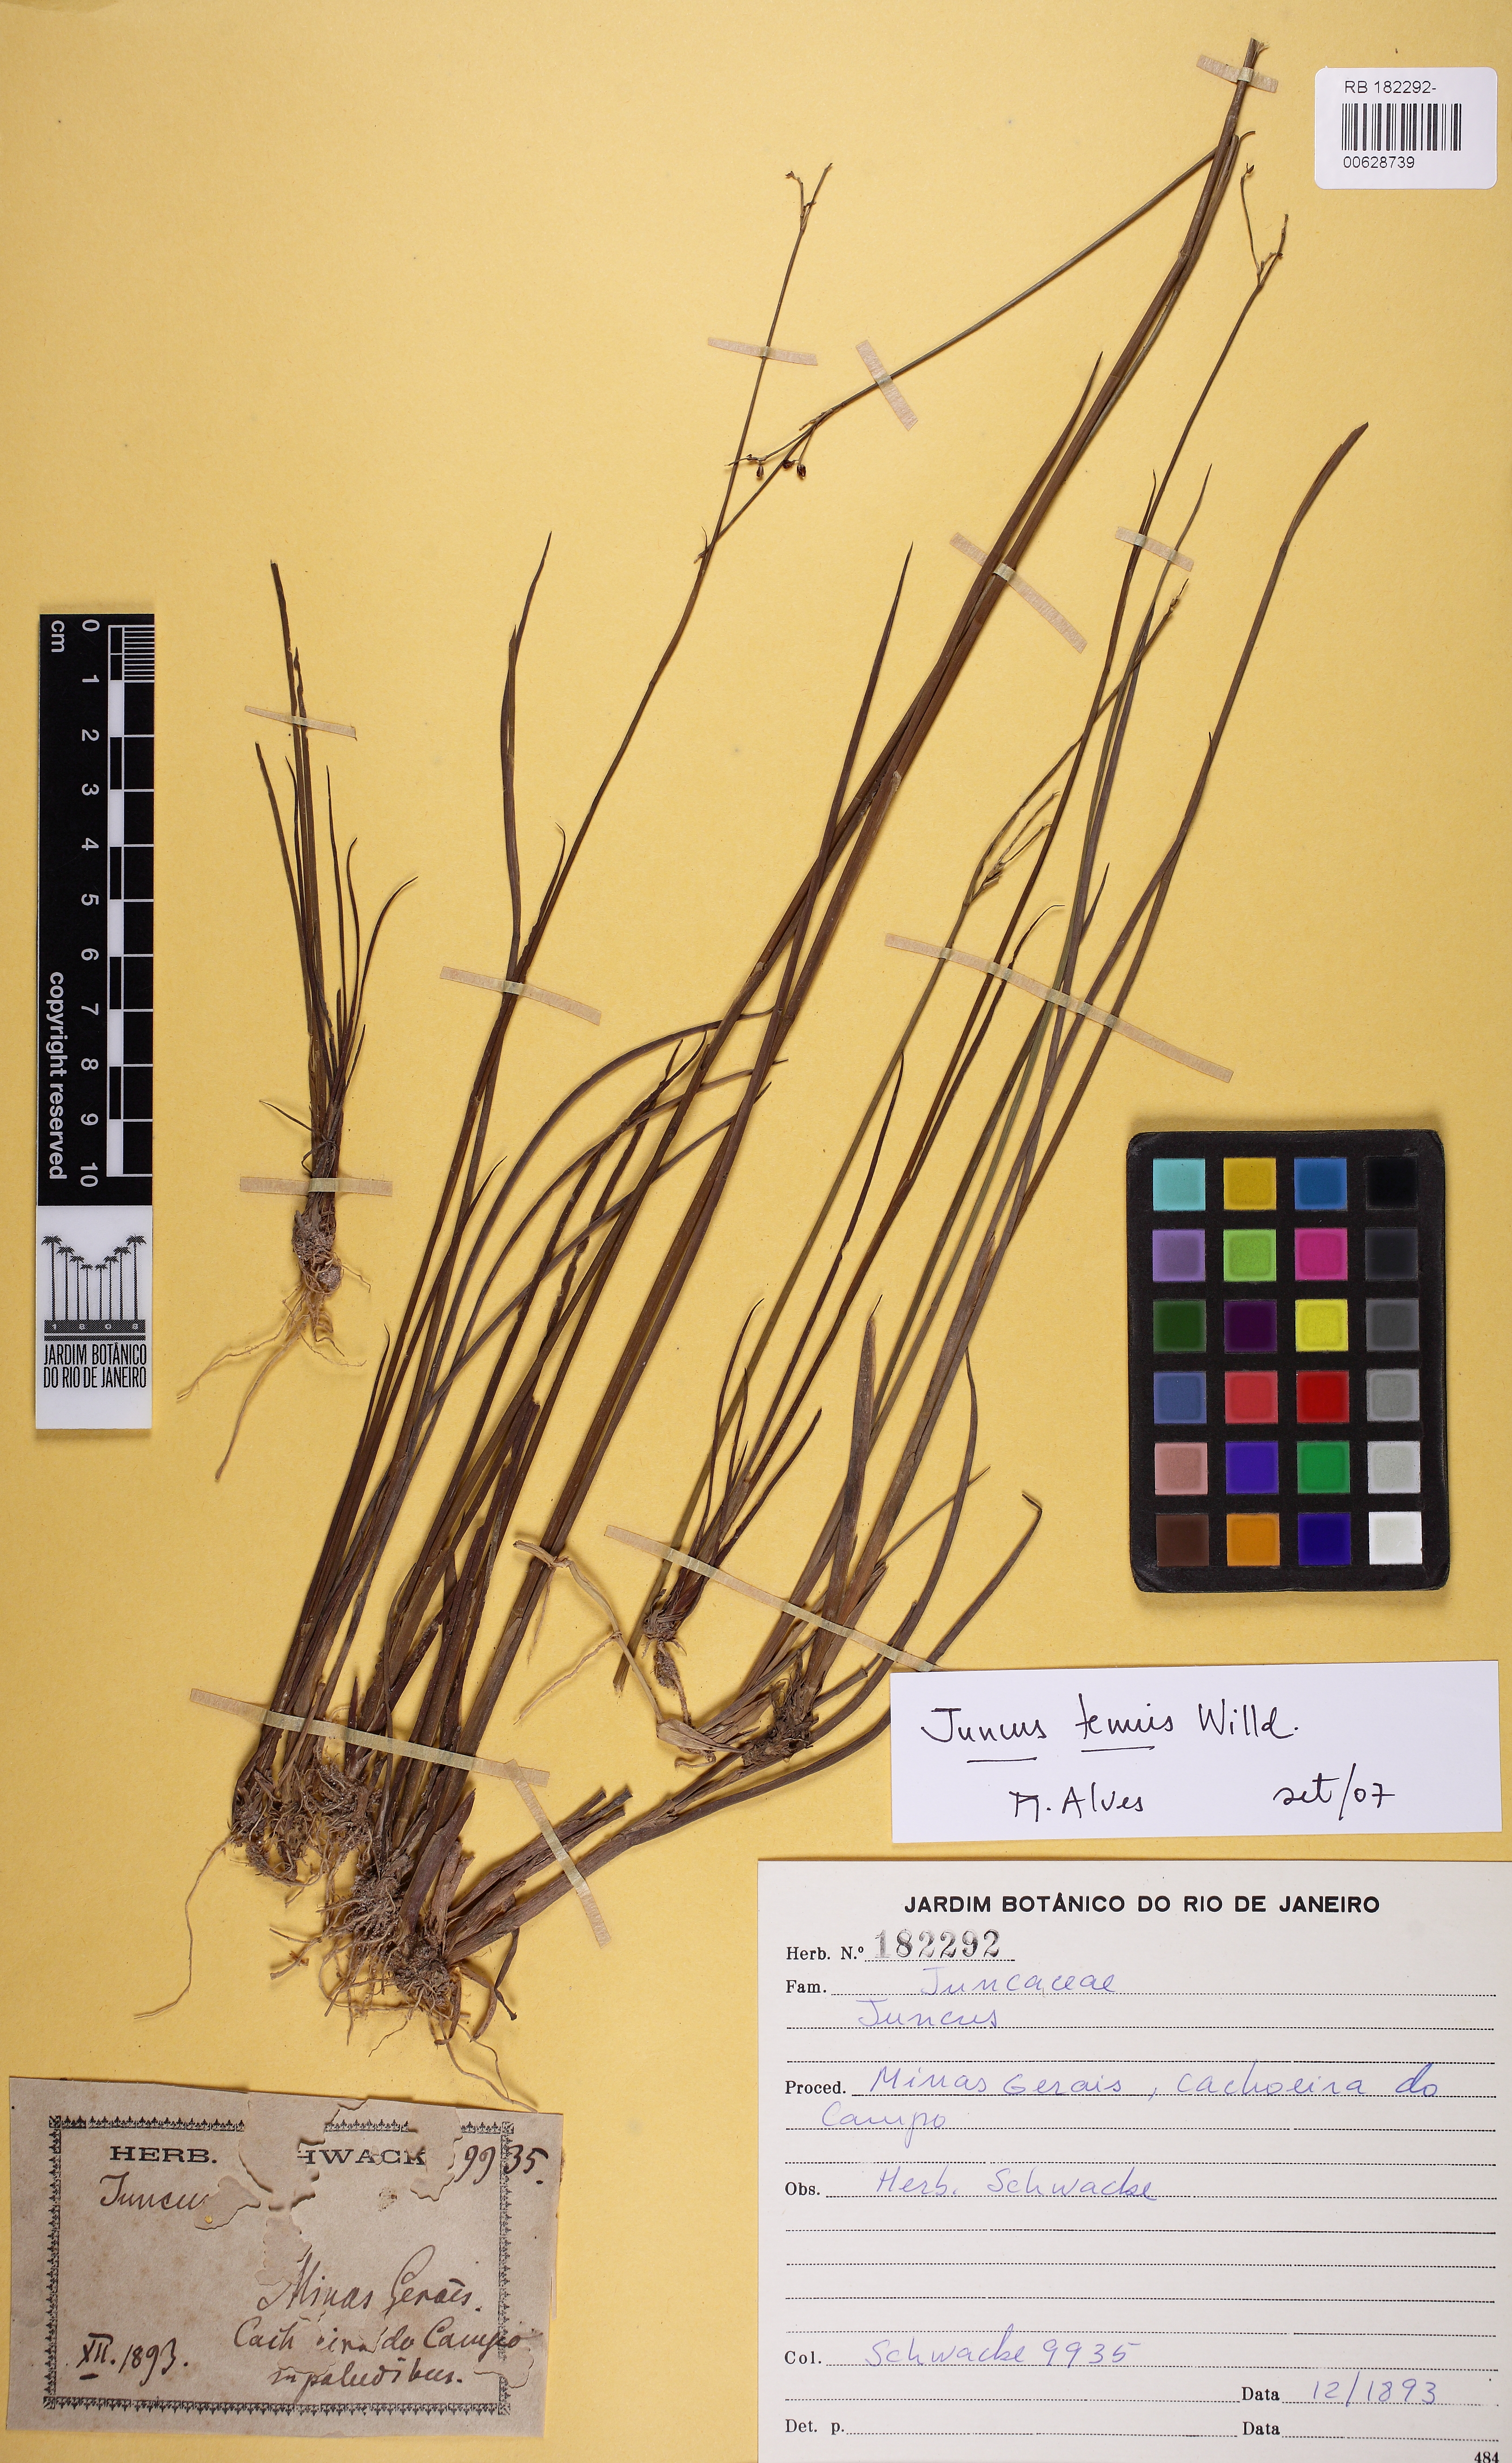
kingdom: Plantae
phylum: Tracheophyta
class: Liliopsida
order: Poales
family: Juncaceae
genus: Juncus
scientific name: Juncus tenuis
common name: Slender rush
